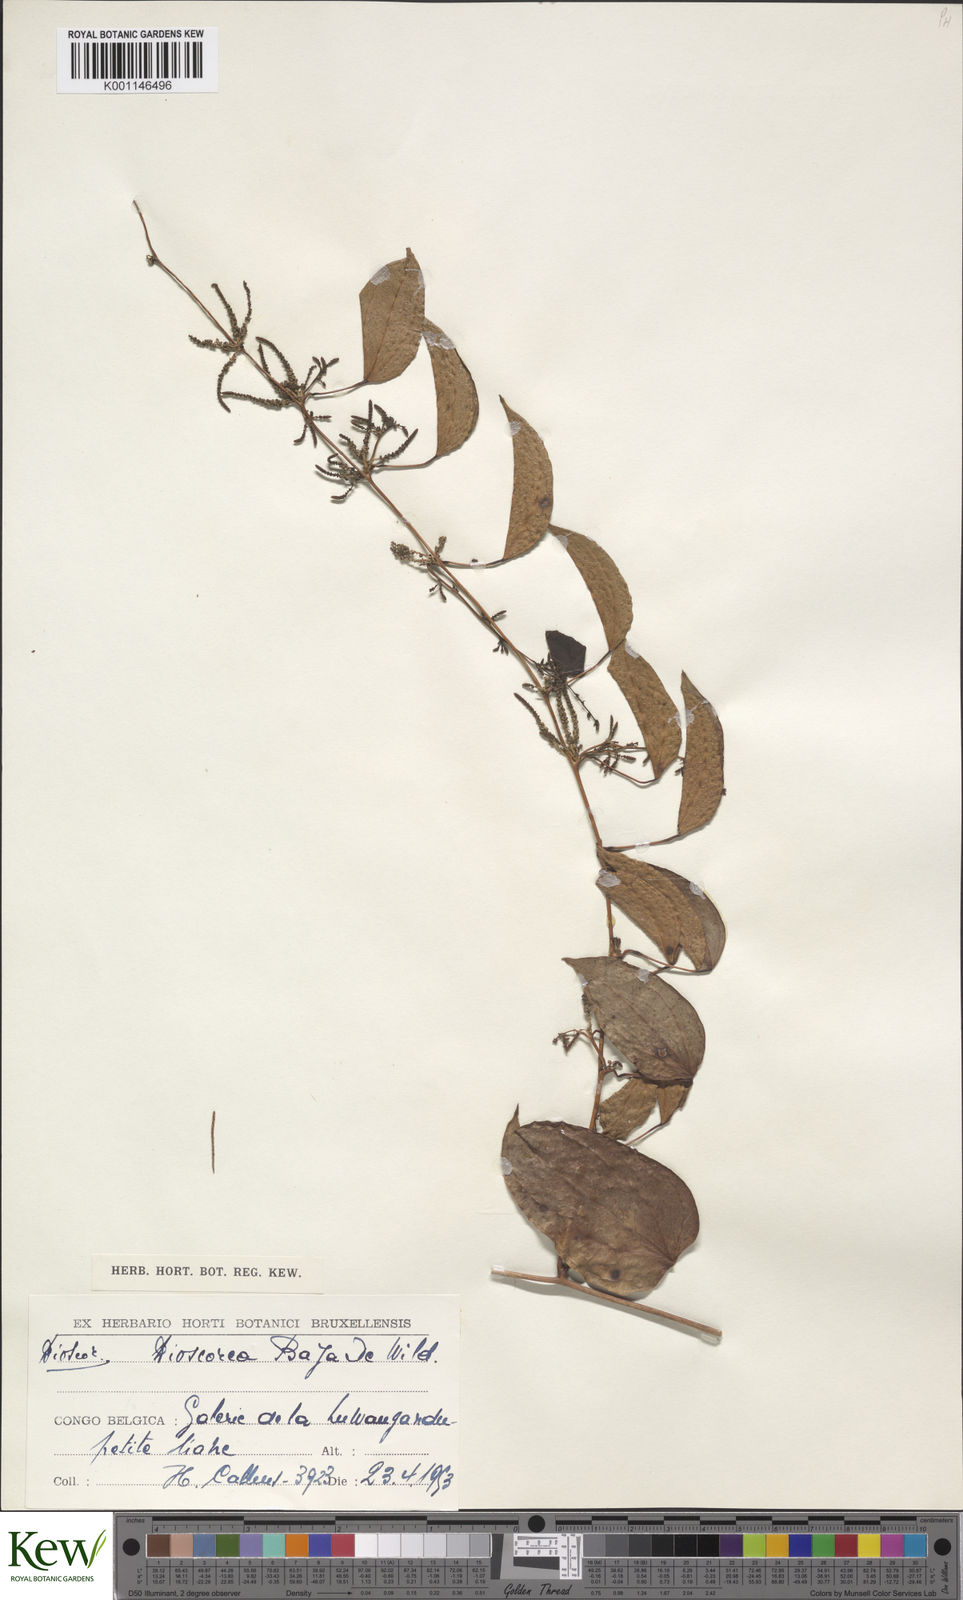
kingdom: Plantae
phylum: Tracheophyta
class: Liliopsida
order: Dioscoreales
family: Dioscoreaceae
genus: Dioscorea
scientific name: Dioscorea baya
